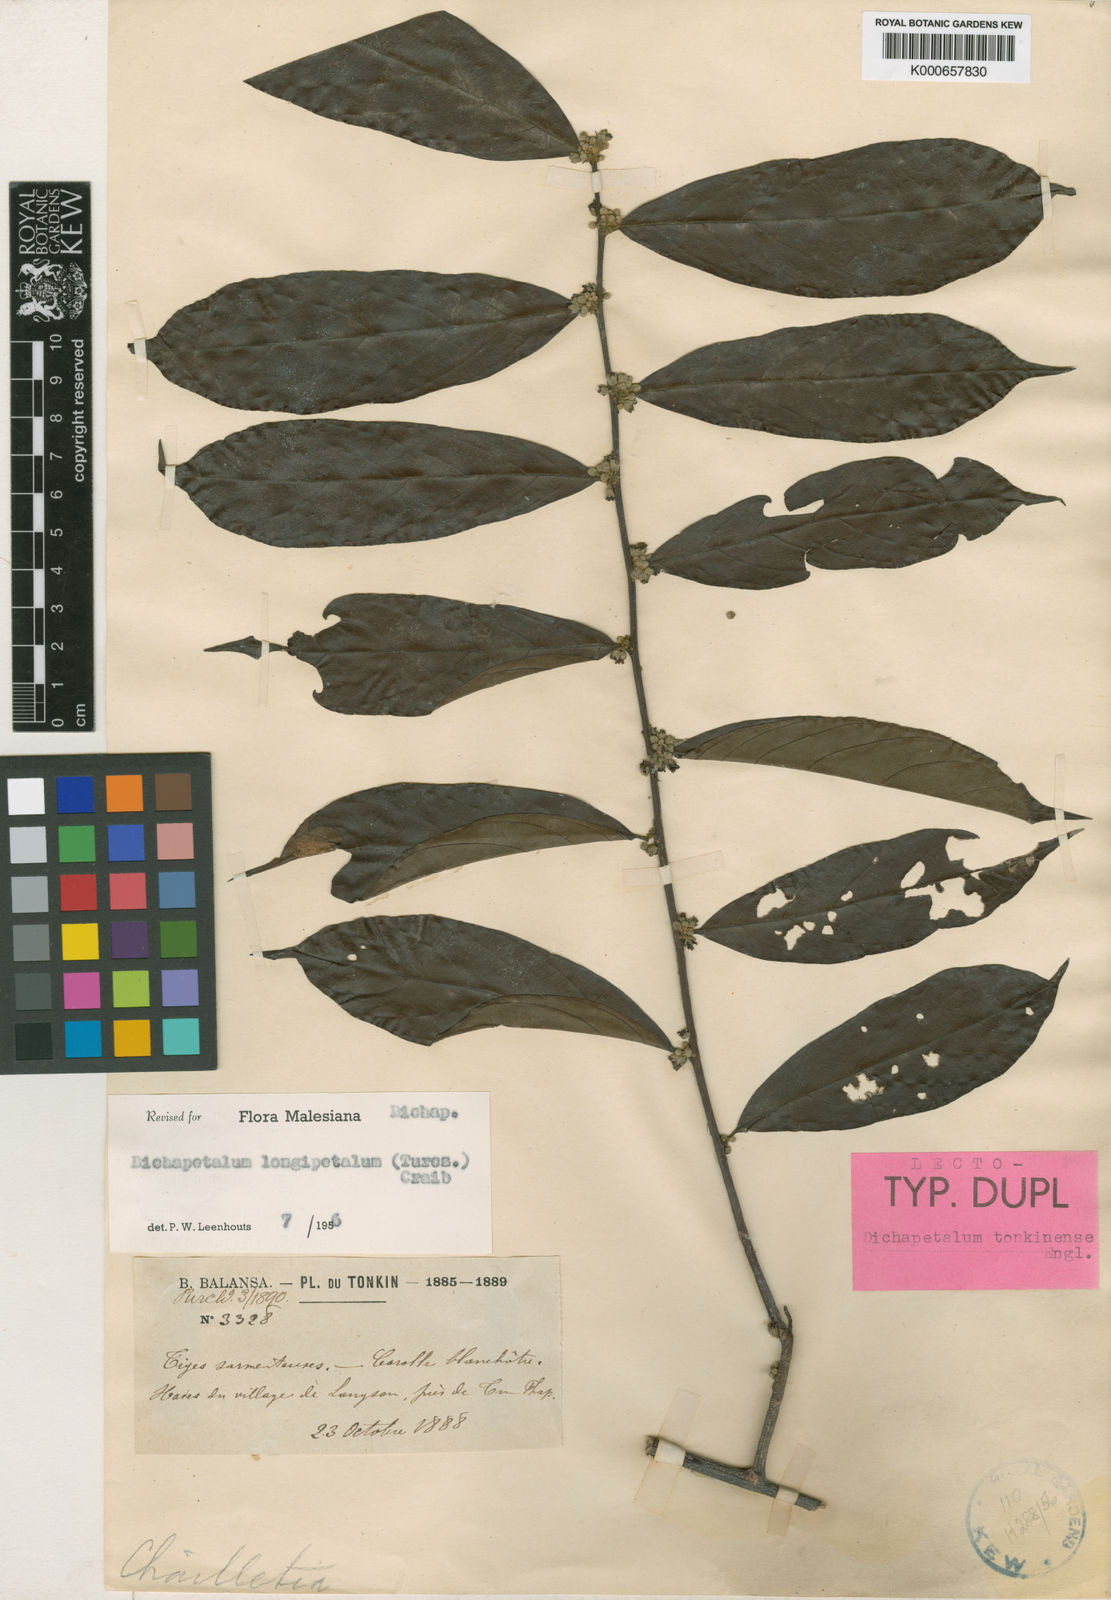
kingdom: Plantae
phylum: Tracheophyta
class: Magnoliopsida
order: Malpighiales
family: Dichapetalaceae
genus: Dichapetalum
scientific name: Dichapetalum
